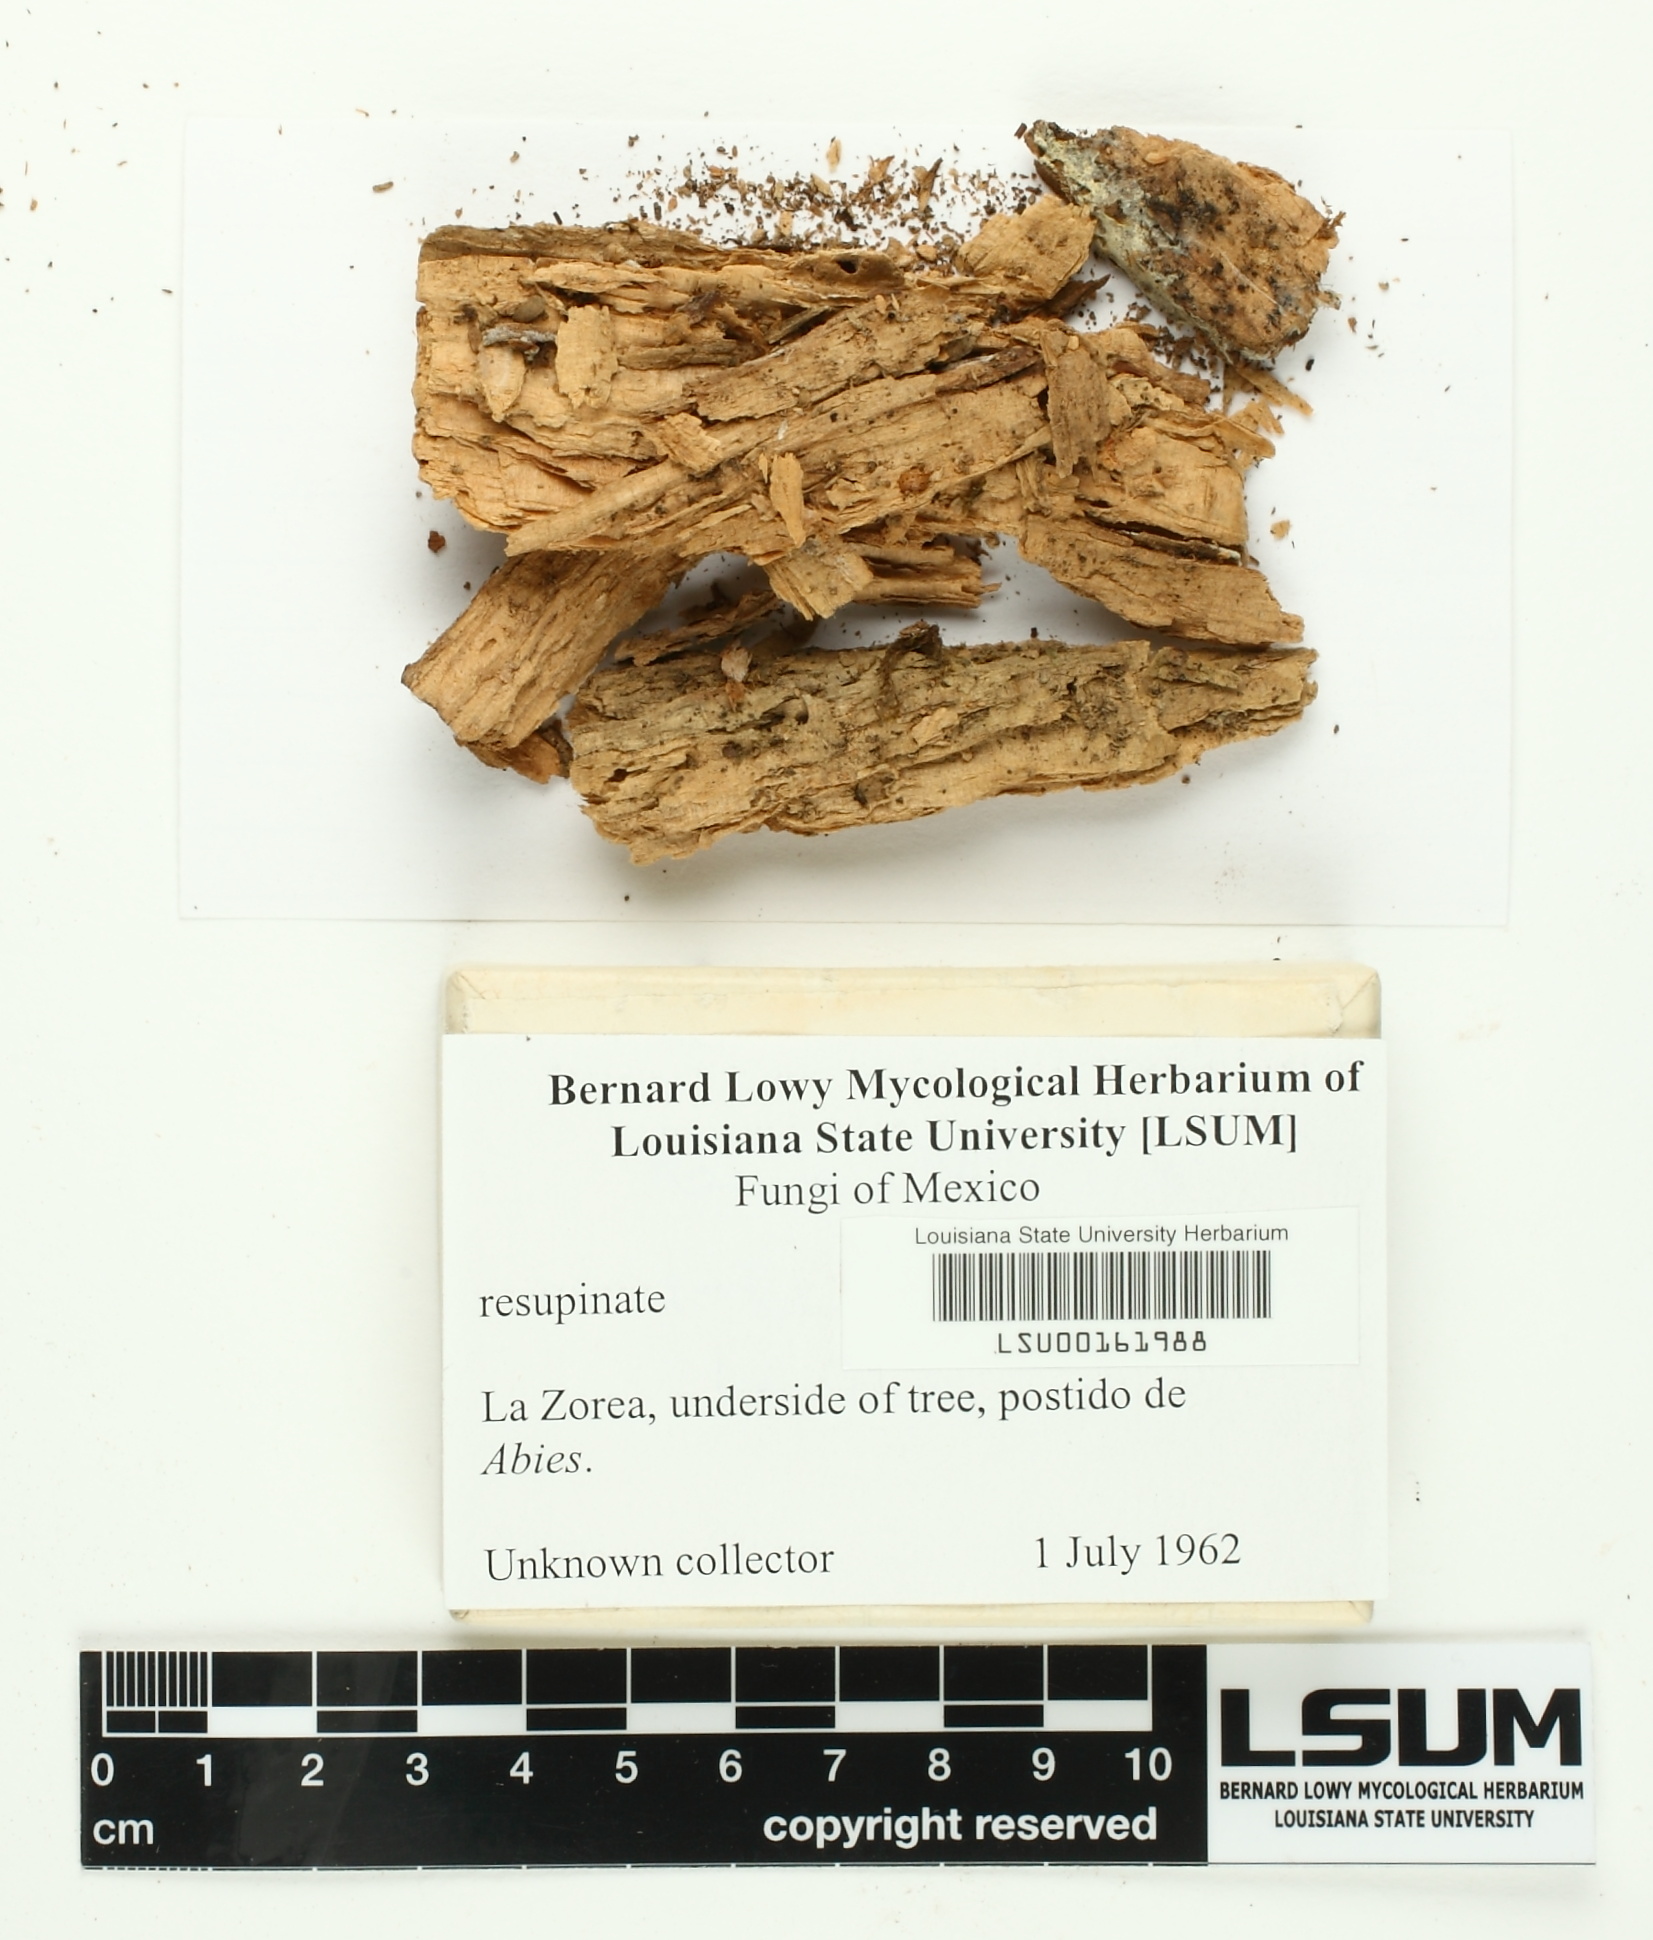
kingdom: Fungi
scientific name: Fungi
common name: Fungi
